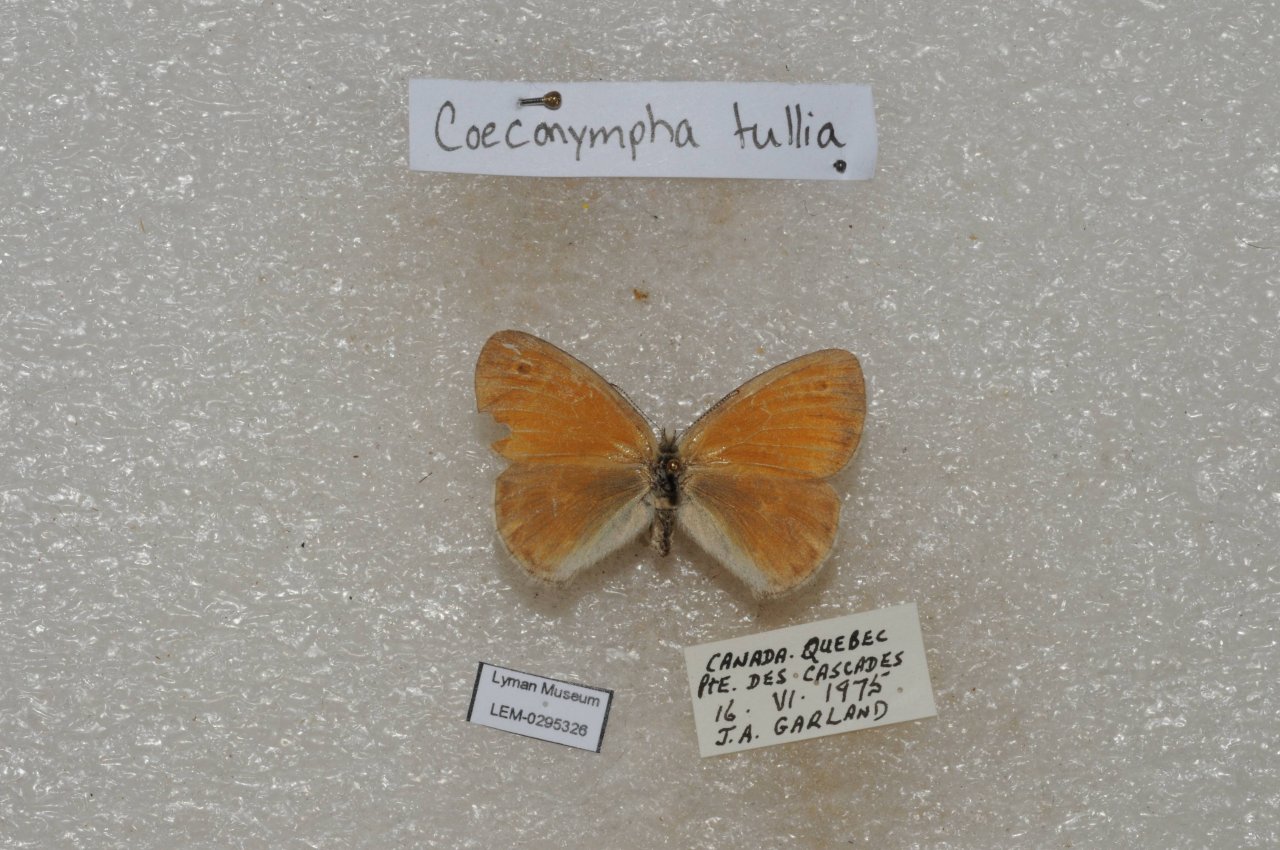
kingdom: Animalia
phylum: Arthropoda
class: Insecta
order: Lepidoptera
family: Nymphalidae
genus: Coenonympha
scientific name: Coenonympha tullia
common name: Large Heath
